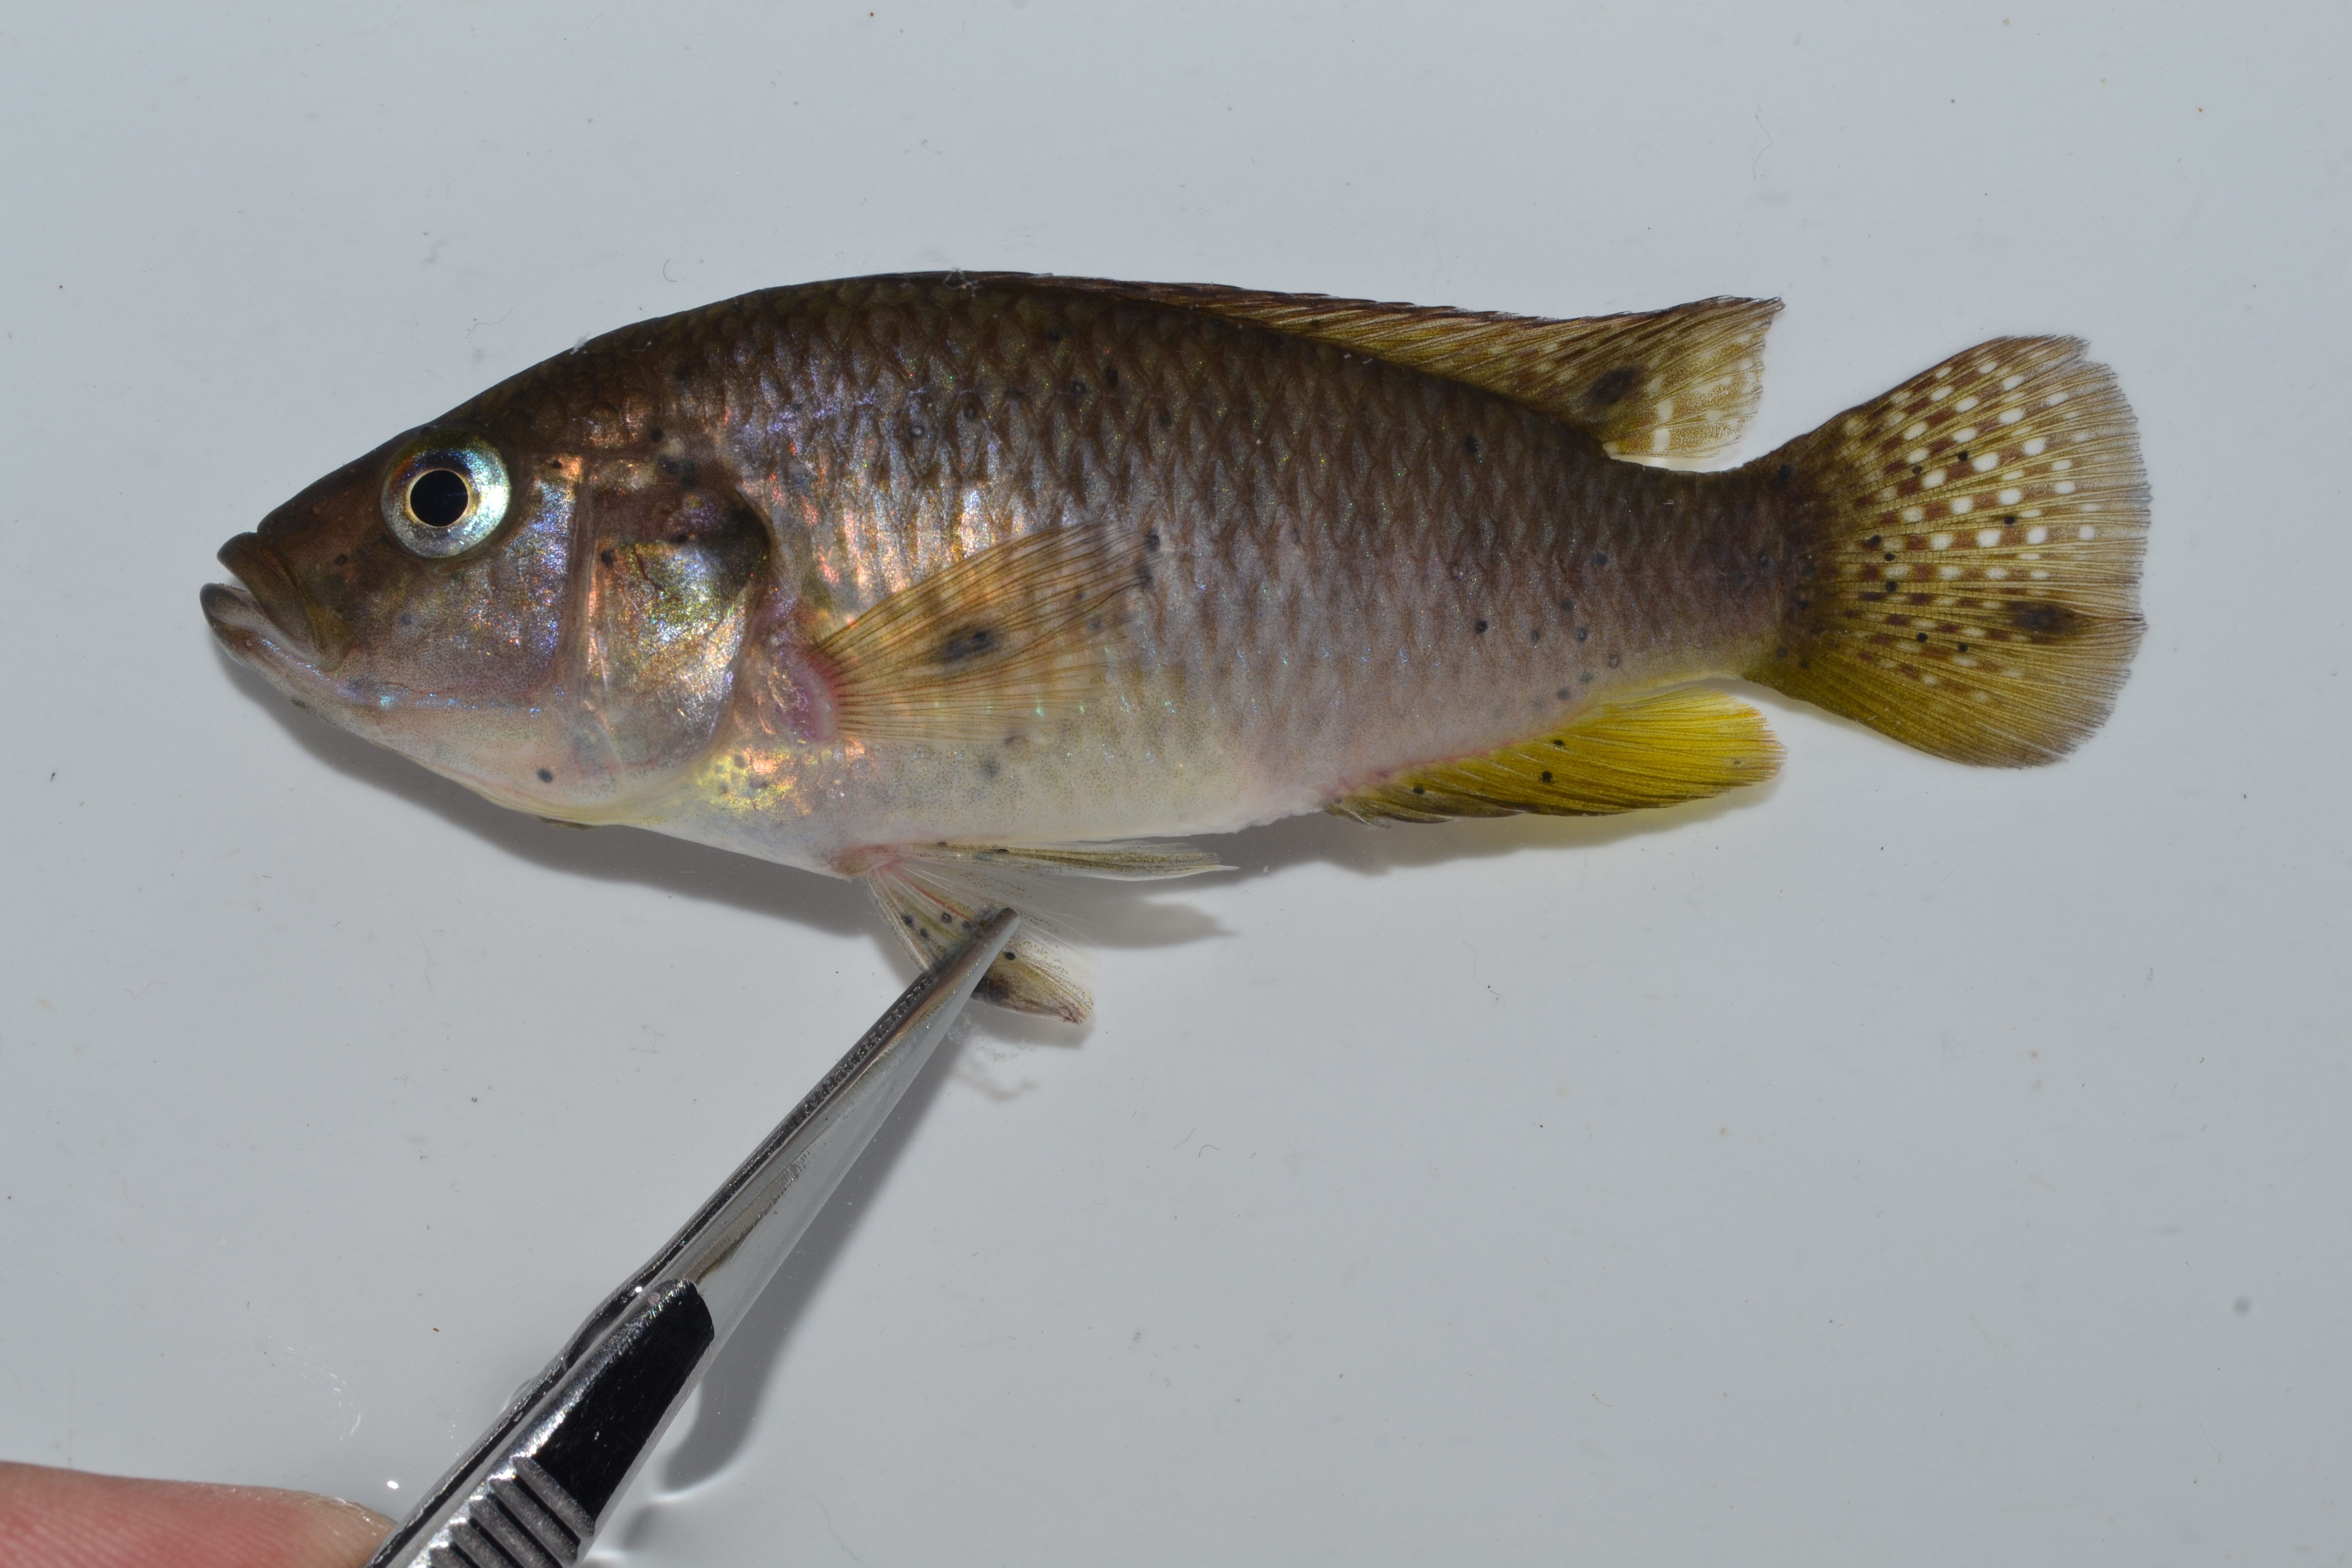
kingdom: Animalia
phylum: Chordata
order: Perciformes
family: Cichlidae
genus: Pseudocrenilabrus
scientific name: Pseudocrenilabrus philander
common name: Southern mouthbrooder
